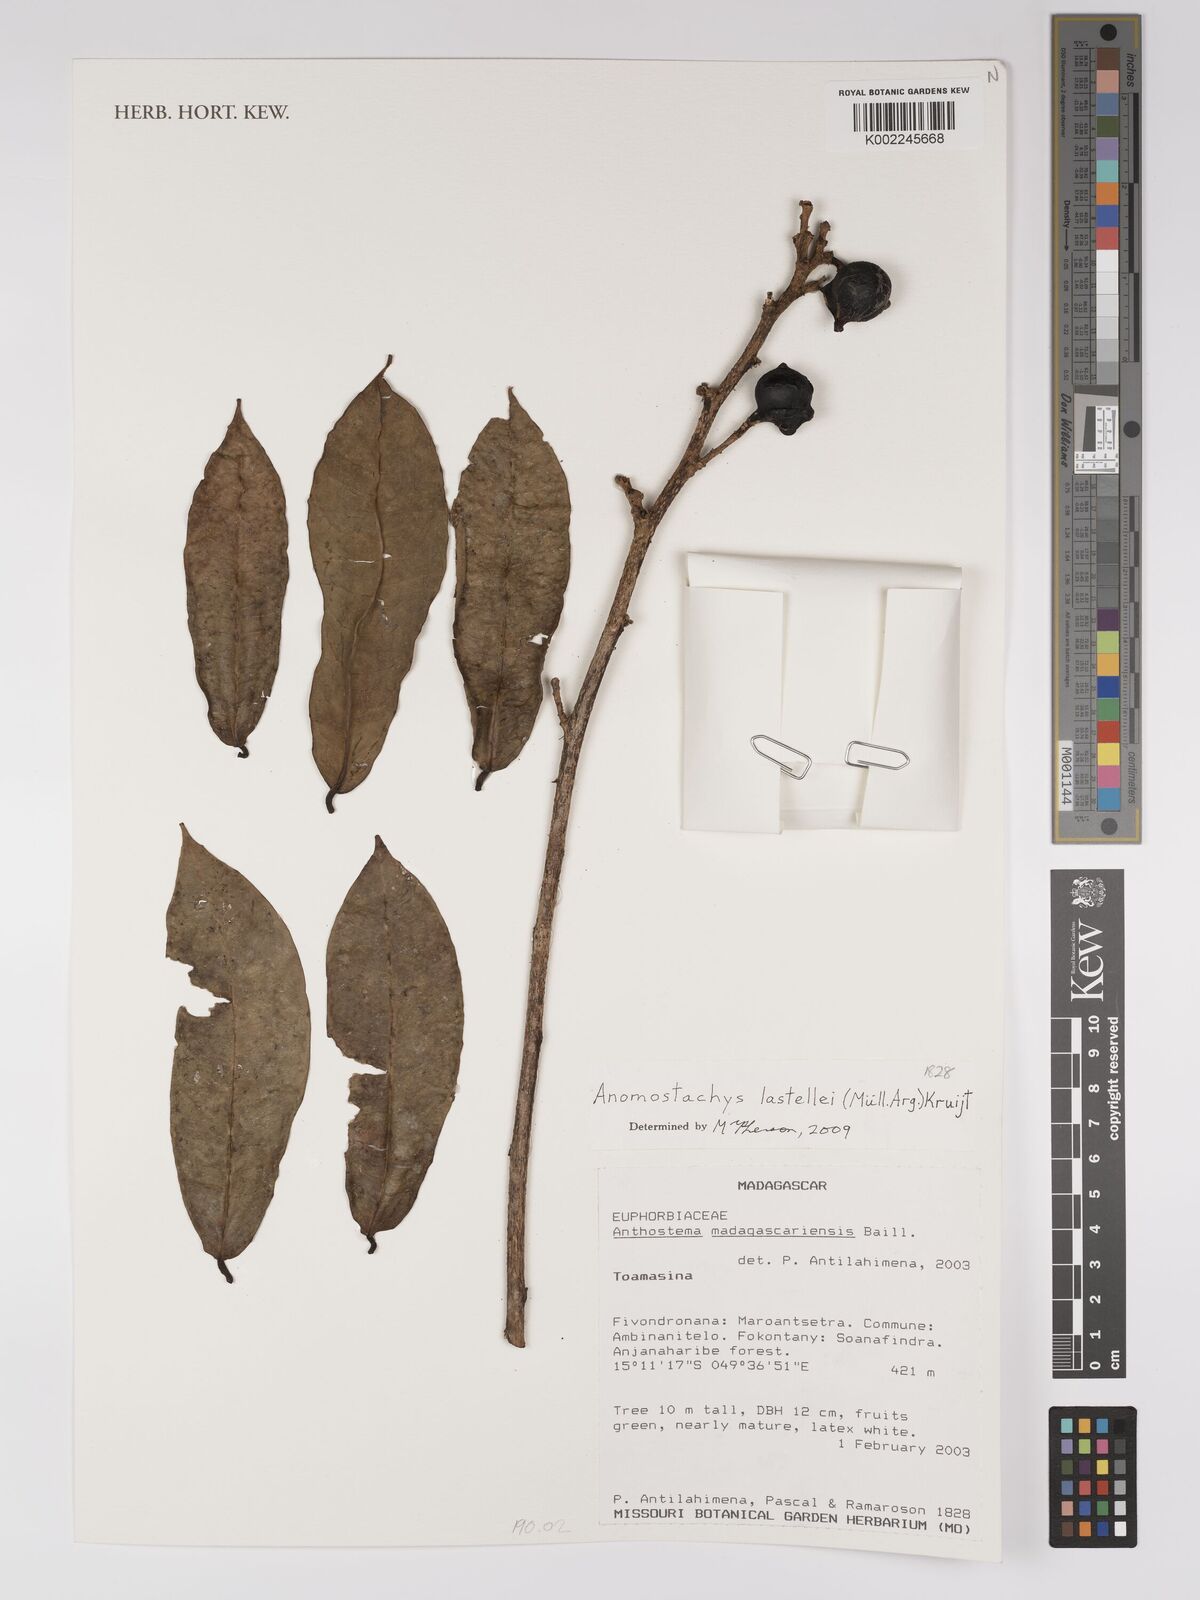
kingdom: Plantae
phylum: Tracheophyta
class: Magnoliopsida
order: Malpighiales
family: Euphorbiaceae
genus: Anomostachys
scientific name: Anomostachys lastellei
